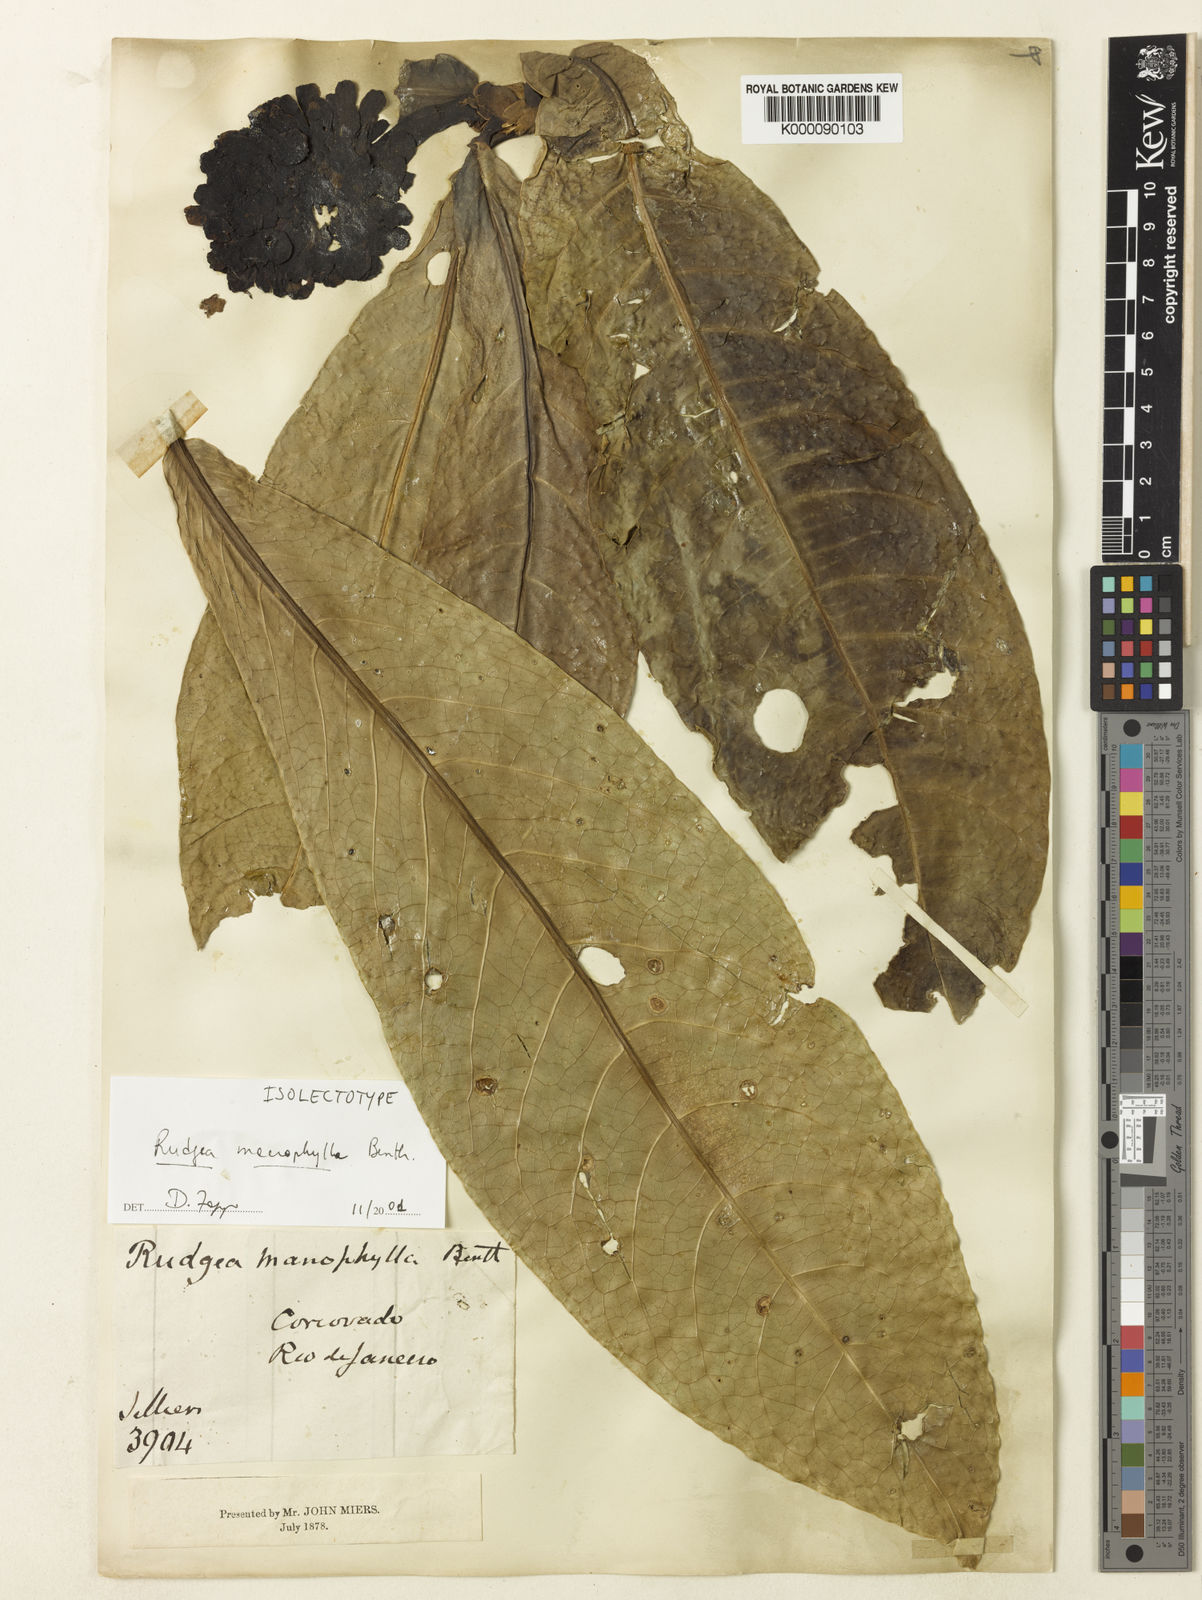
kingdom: Plantae
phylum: Tracheophyta
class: Magnoliopsida
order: Gentianales
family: Rubiaceae
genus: Rudgea
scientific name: Rudgea macrophylla
